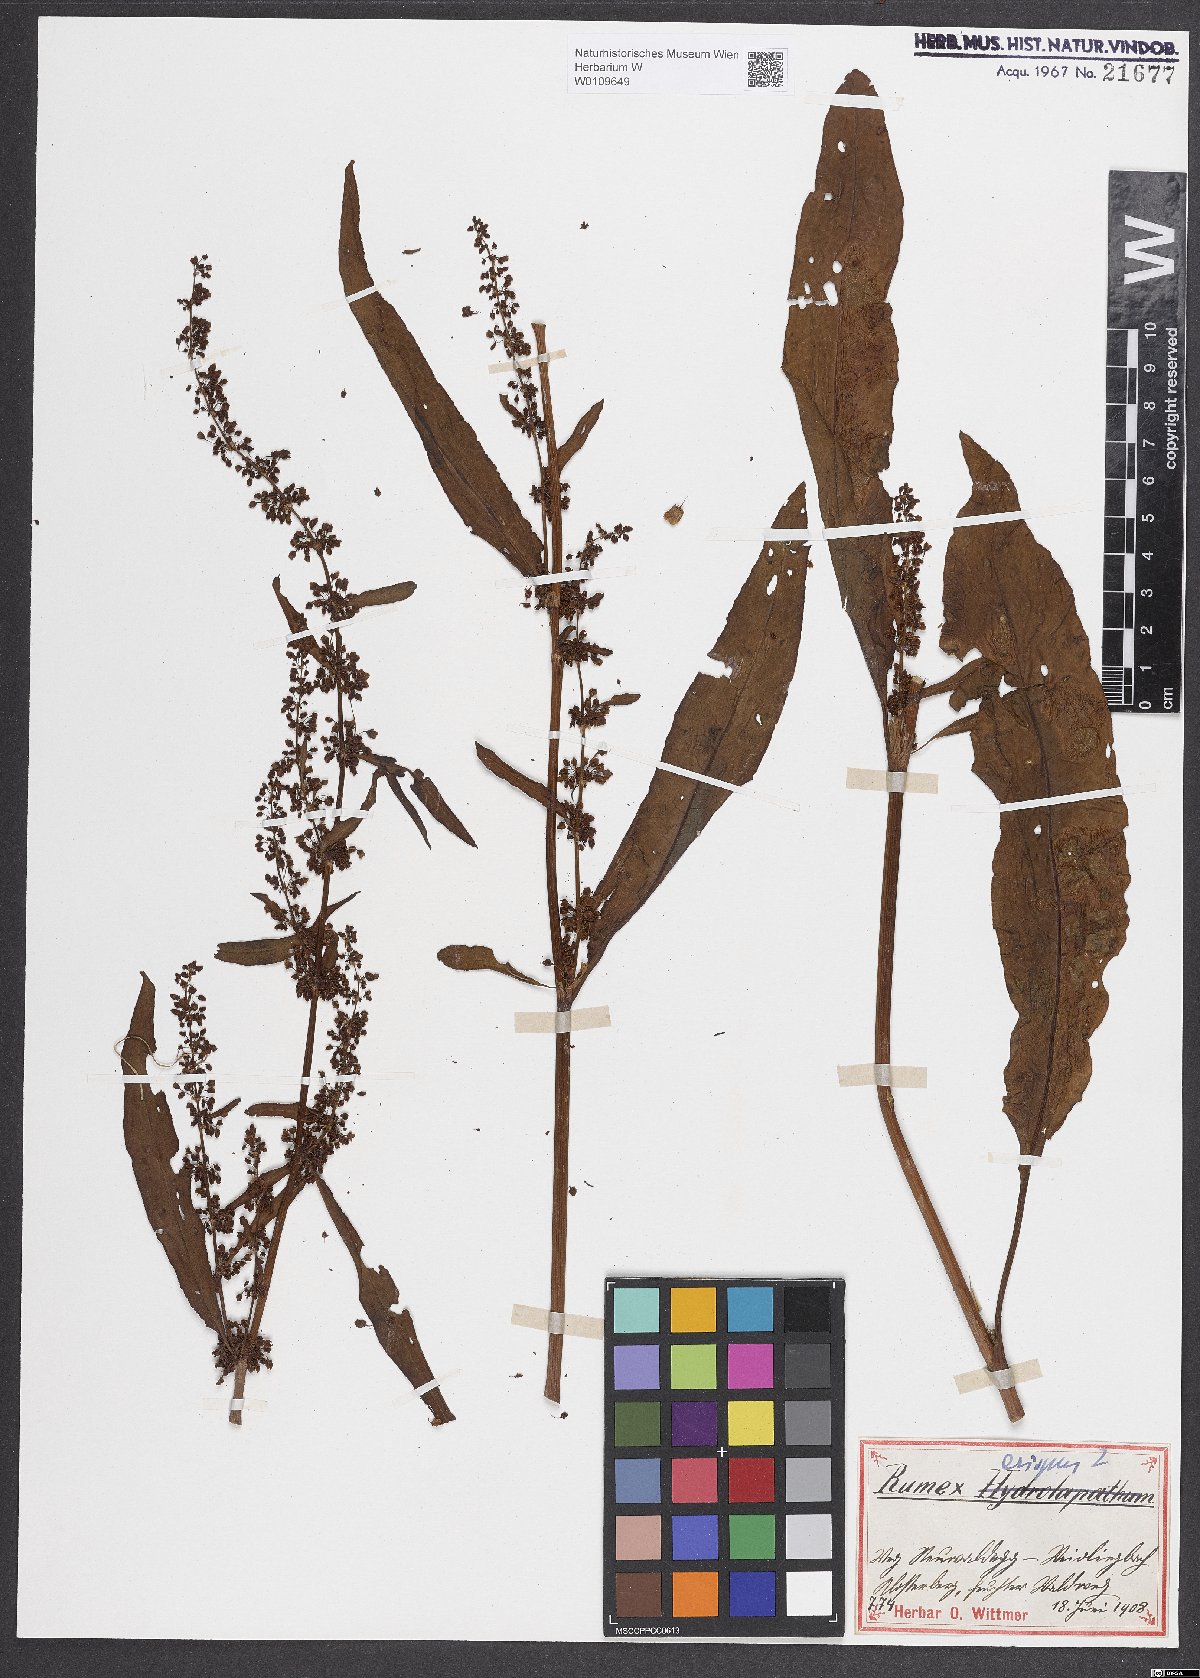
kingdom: Plantae
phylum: Tracheophyta
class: Magnoliopsida
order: Caryophyllales
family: Polygonaceae
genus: Rumex
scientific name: Rumex crispus
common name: Curled dock
